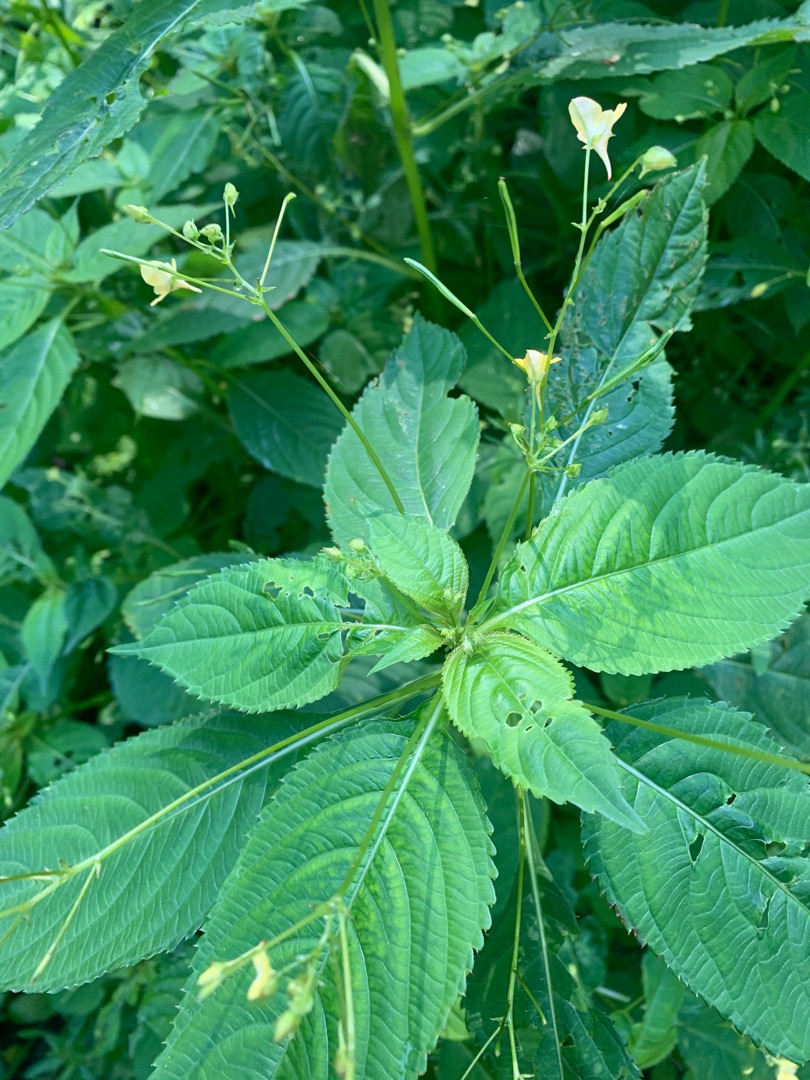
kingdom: Plantae
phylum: Tracheophyta
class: Magnoliopsida
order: Ericales
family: Balsaminaceae
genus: Impatiens
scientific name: Impatiens parviflora
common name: Småblomstret balsamin
